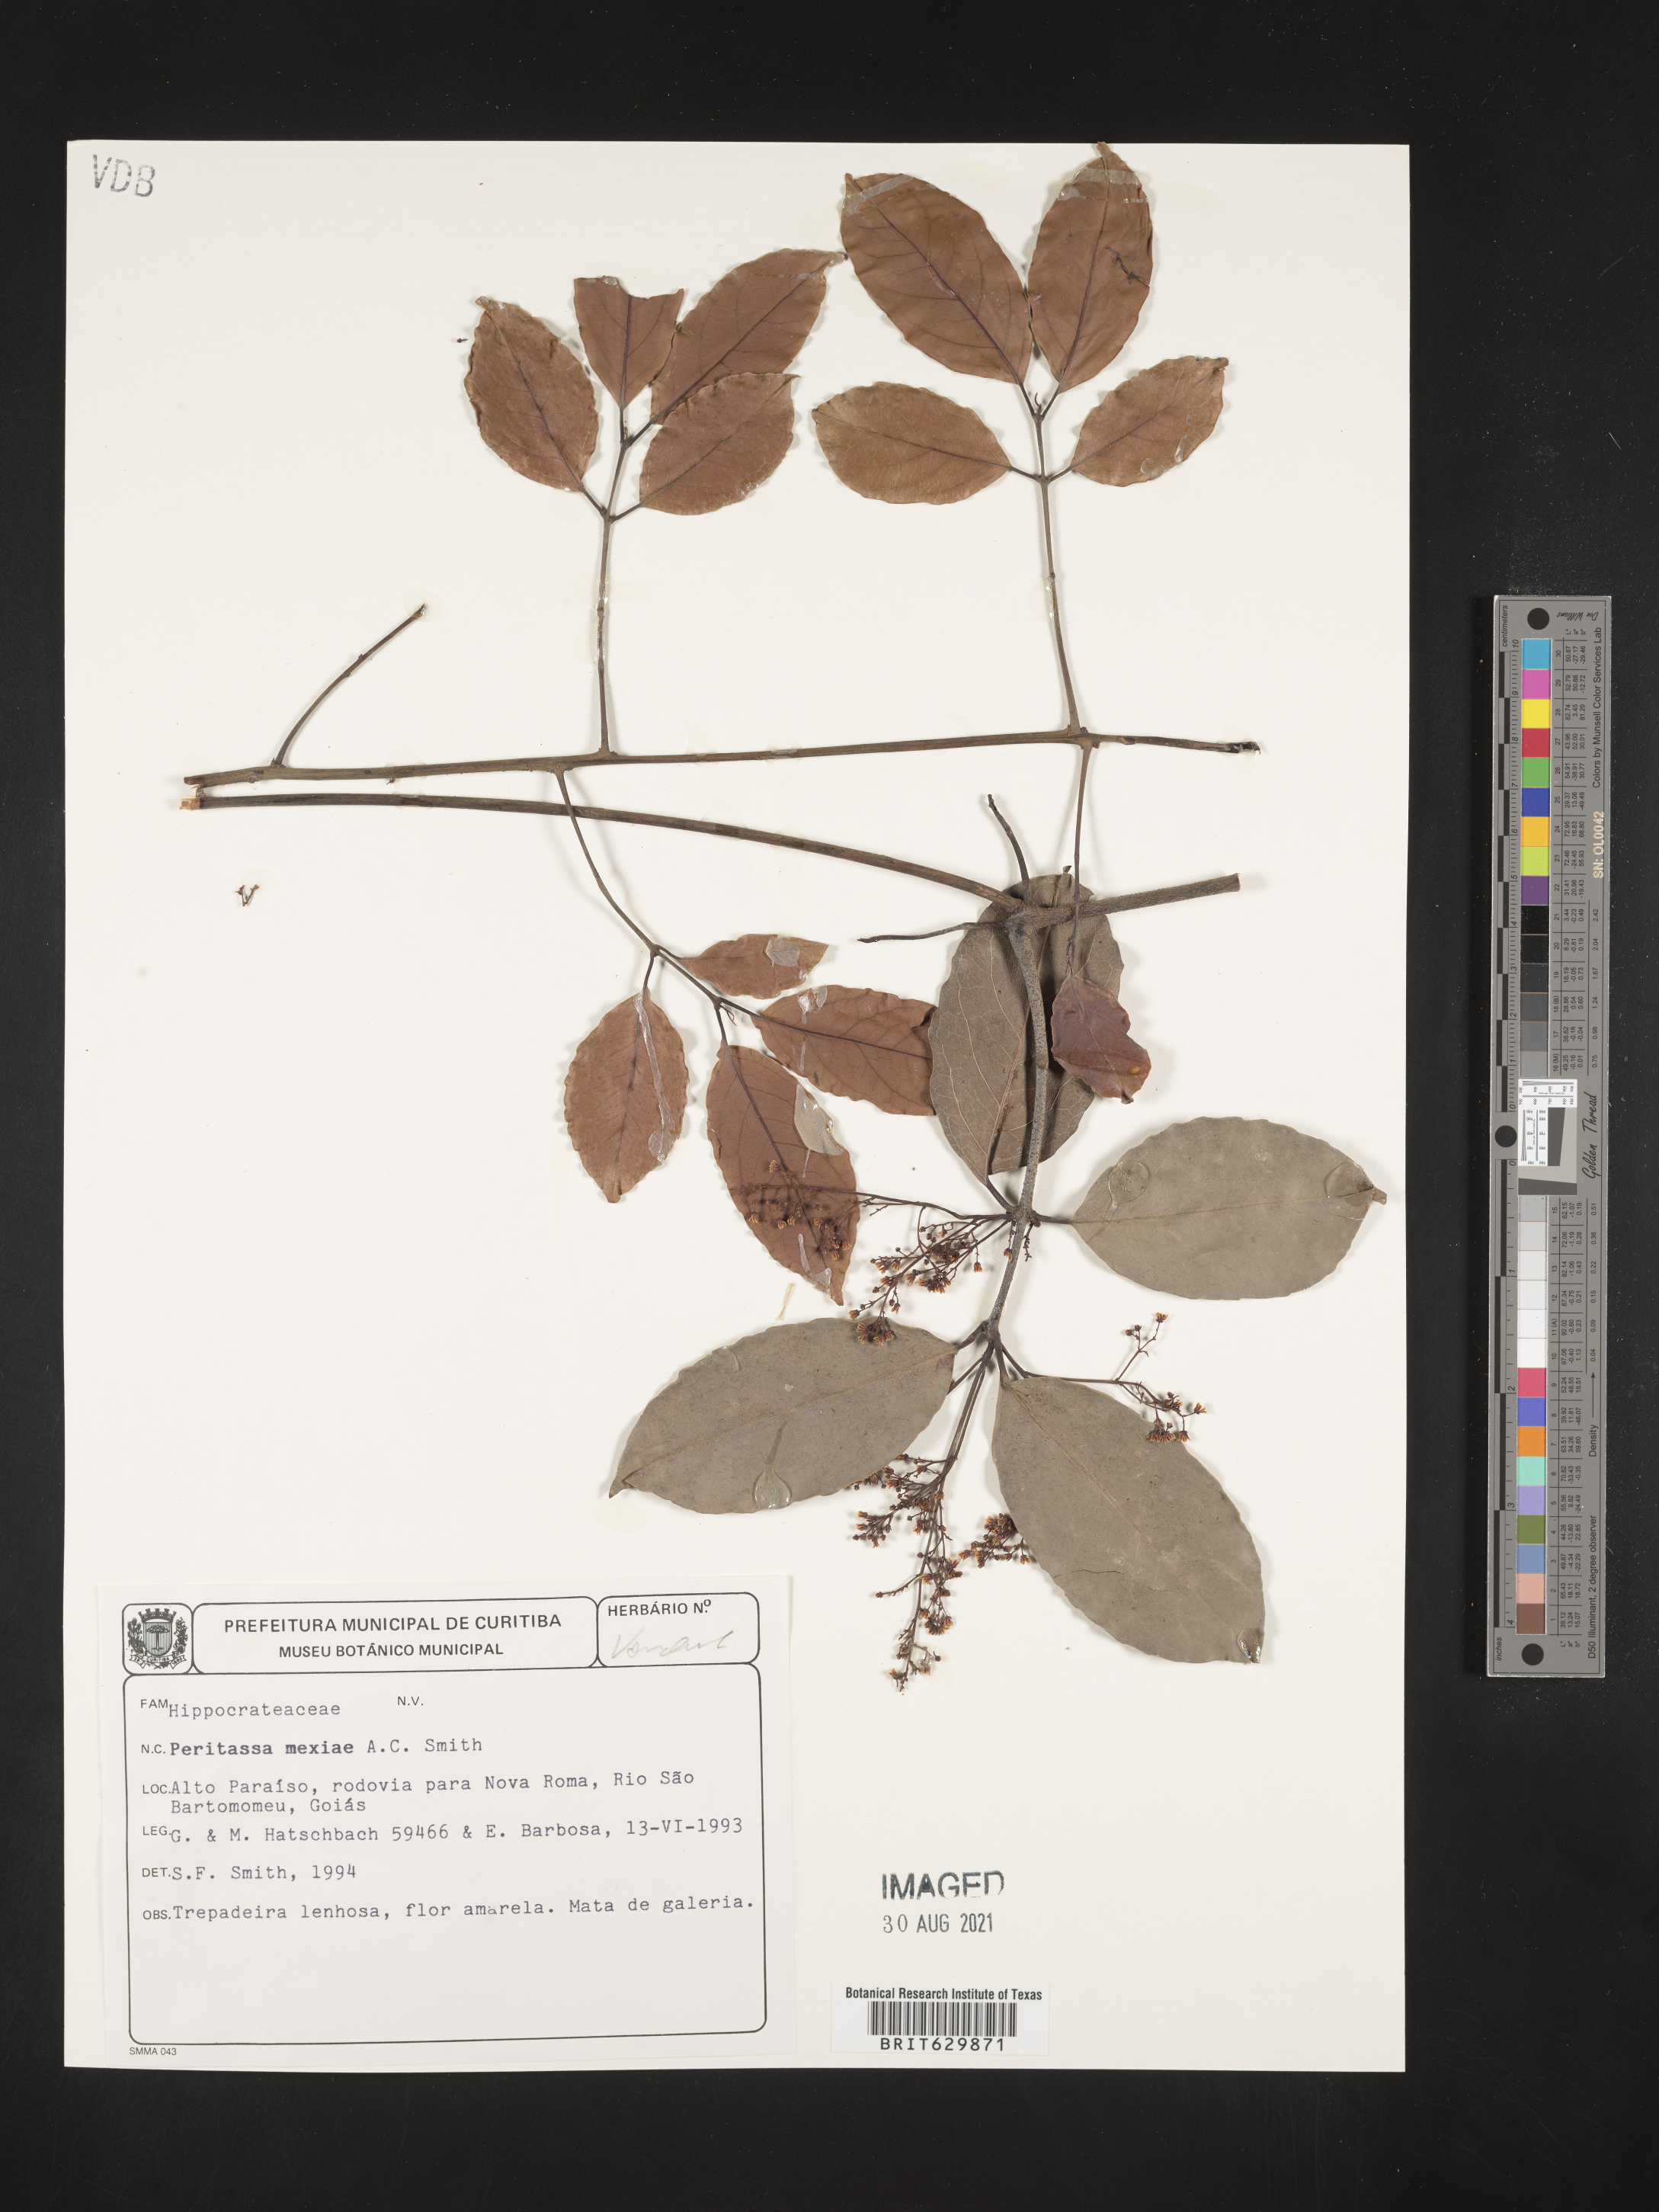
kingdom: Plantae
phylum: Tracheophyta
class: Magnoliopsida
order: Celastrales
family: Celastraceae
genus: Peritassa
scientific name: Peritassa mexiae
